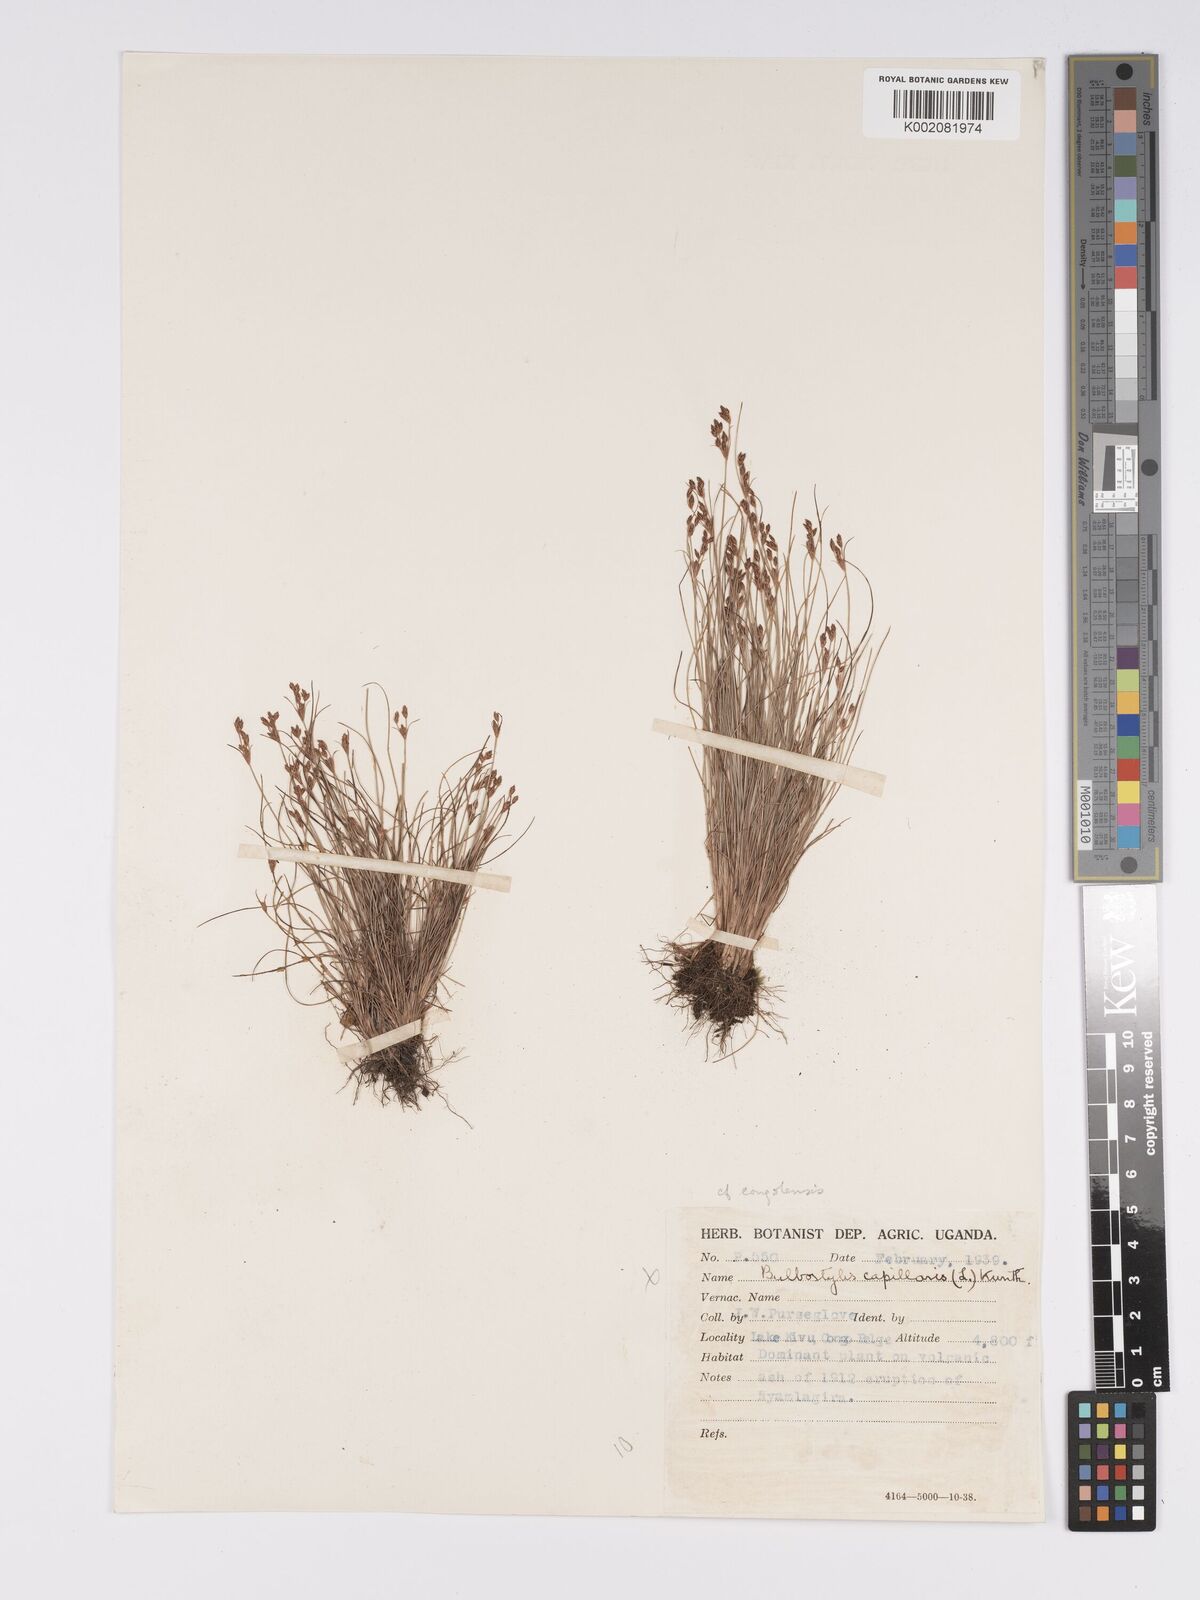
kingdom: Plantae
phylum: Tracheophyta
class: Liliopsida
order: Poales
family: Cyperaceae
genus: Bulbostylis
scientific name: Bulbostylis
